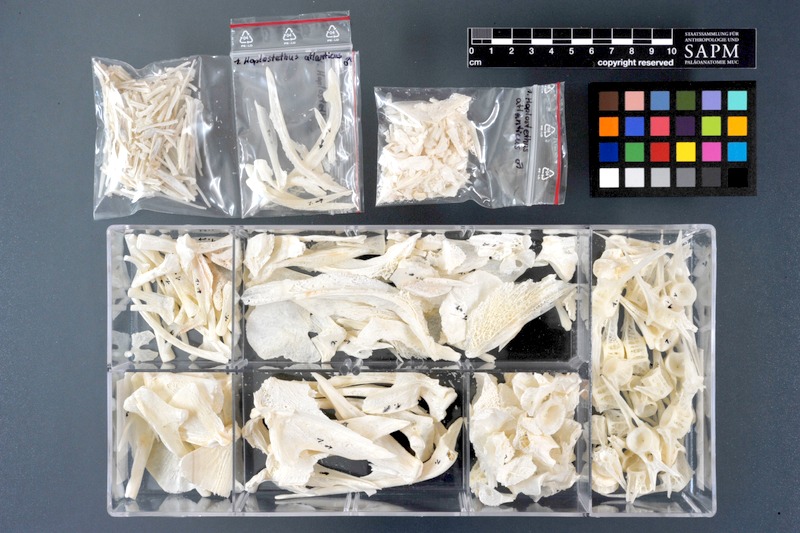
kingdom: Animalia
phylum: Chordata
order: Beryciformes
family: Trachichthyidae
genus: Hoplostethus
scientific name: Hoplostethus atlanticus
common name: Orange roughy
